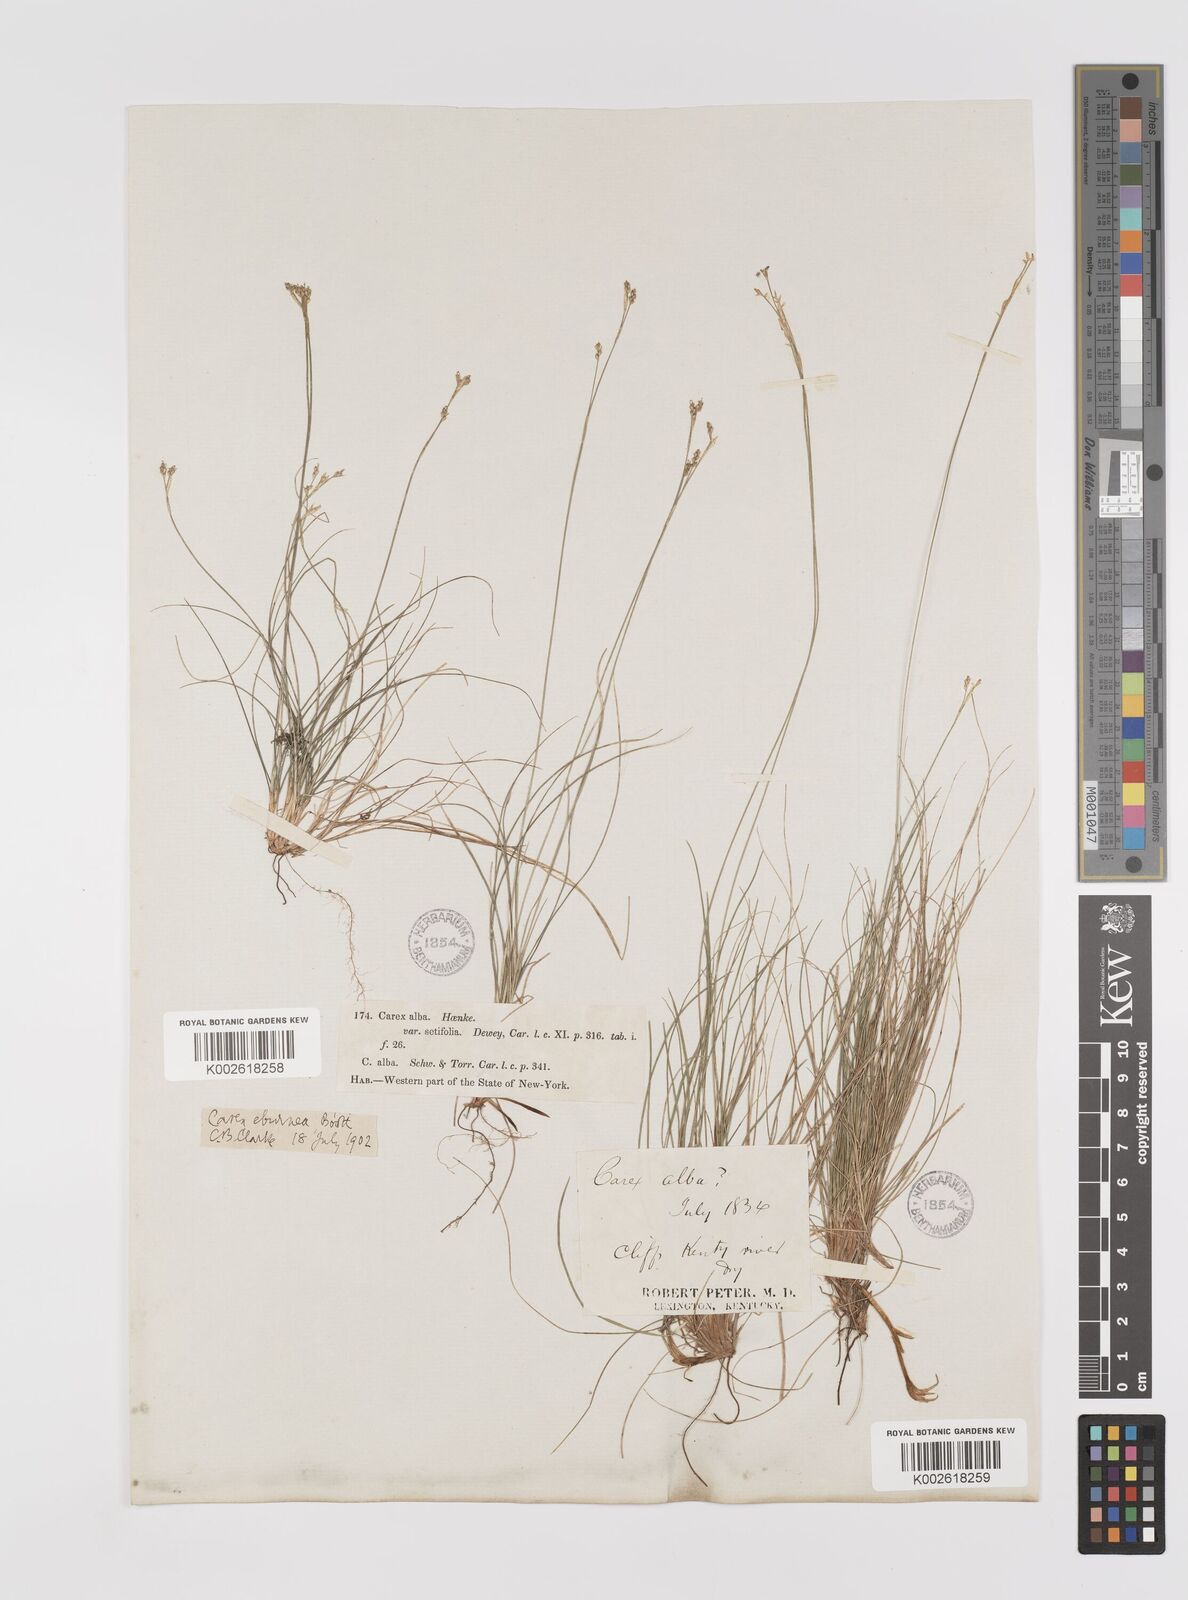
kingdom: Plantae
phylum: Tracheophyta
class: Liliopsida
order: Poales
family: Cyperaceae
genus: Carex
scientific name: Carex eburnea
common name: Bristle-leaved sedge
